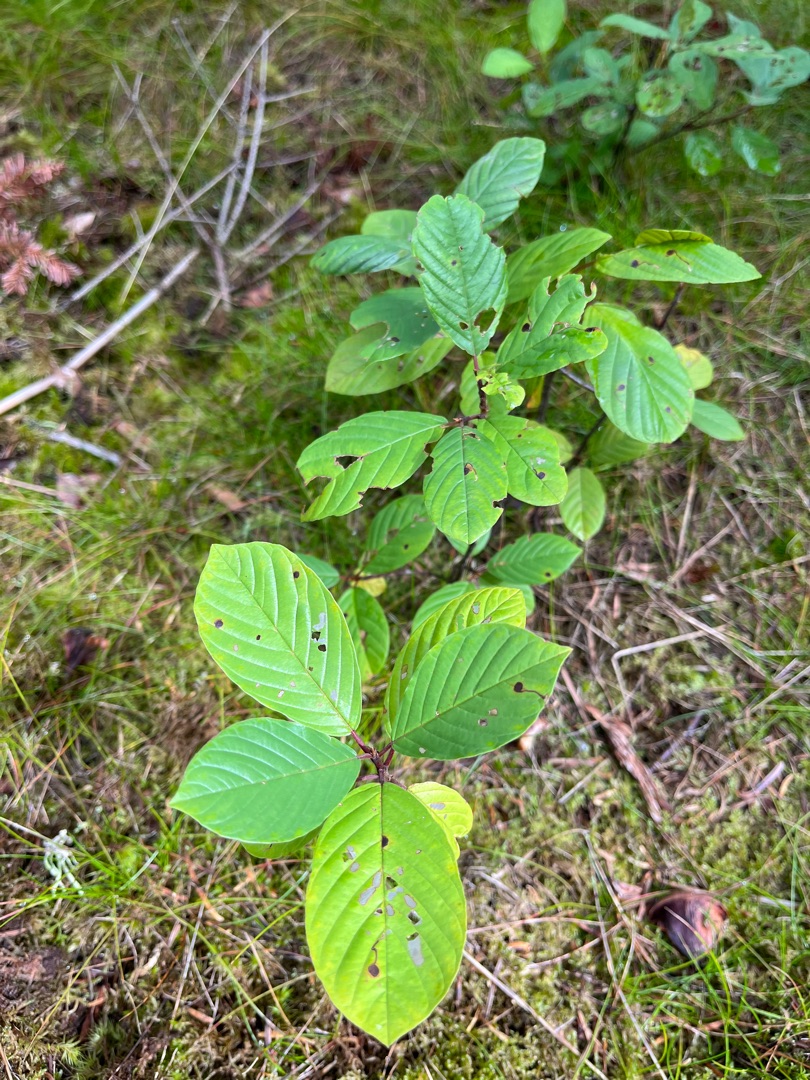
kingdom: Plantae
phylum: Tracheophyta
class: Magnoliopsida
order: Rosales
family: Rhamnaceae
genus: Frangula
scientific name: Frangula alnus
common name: Tørst
